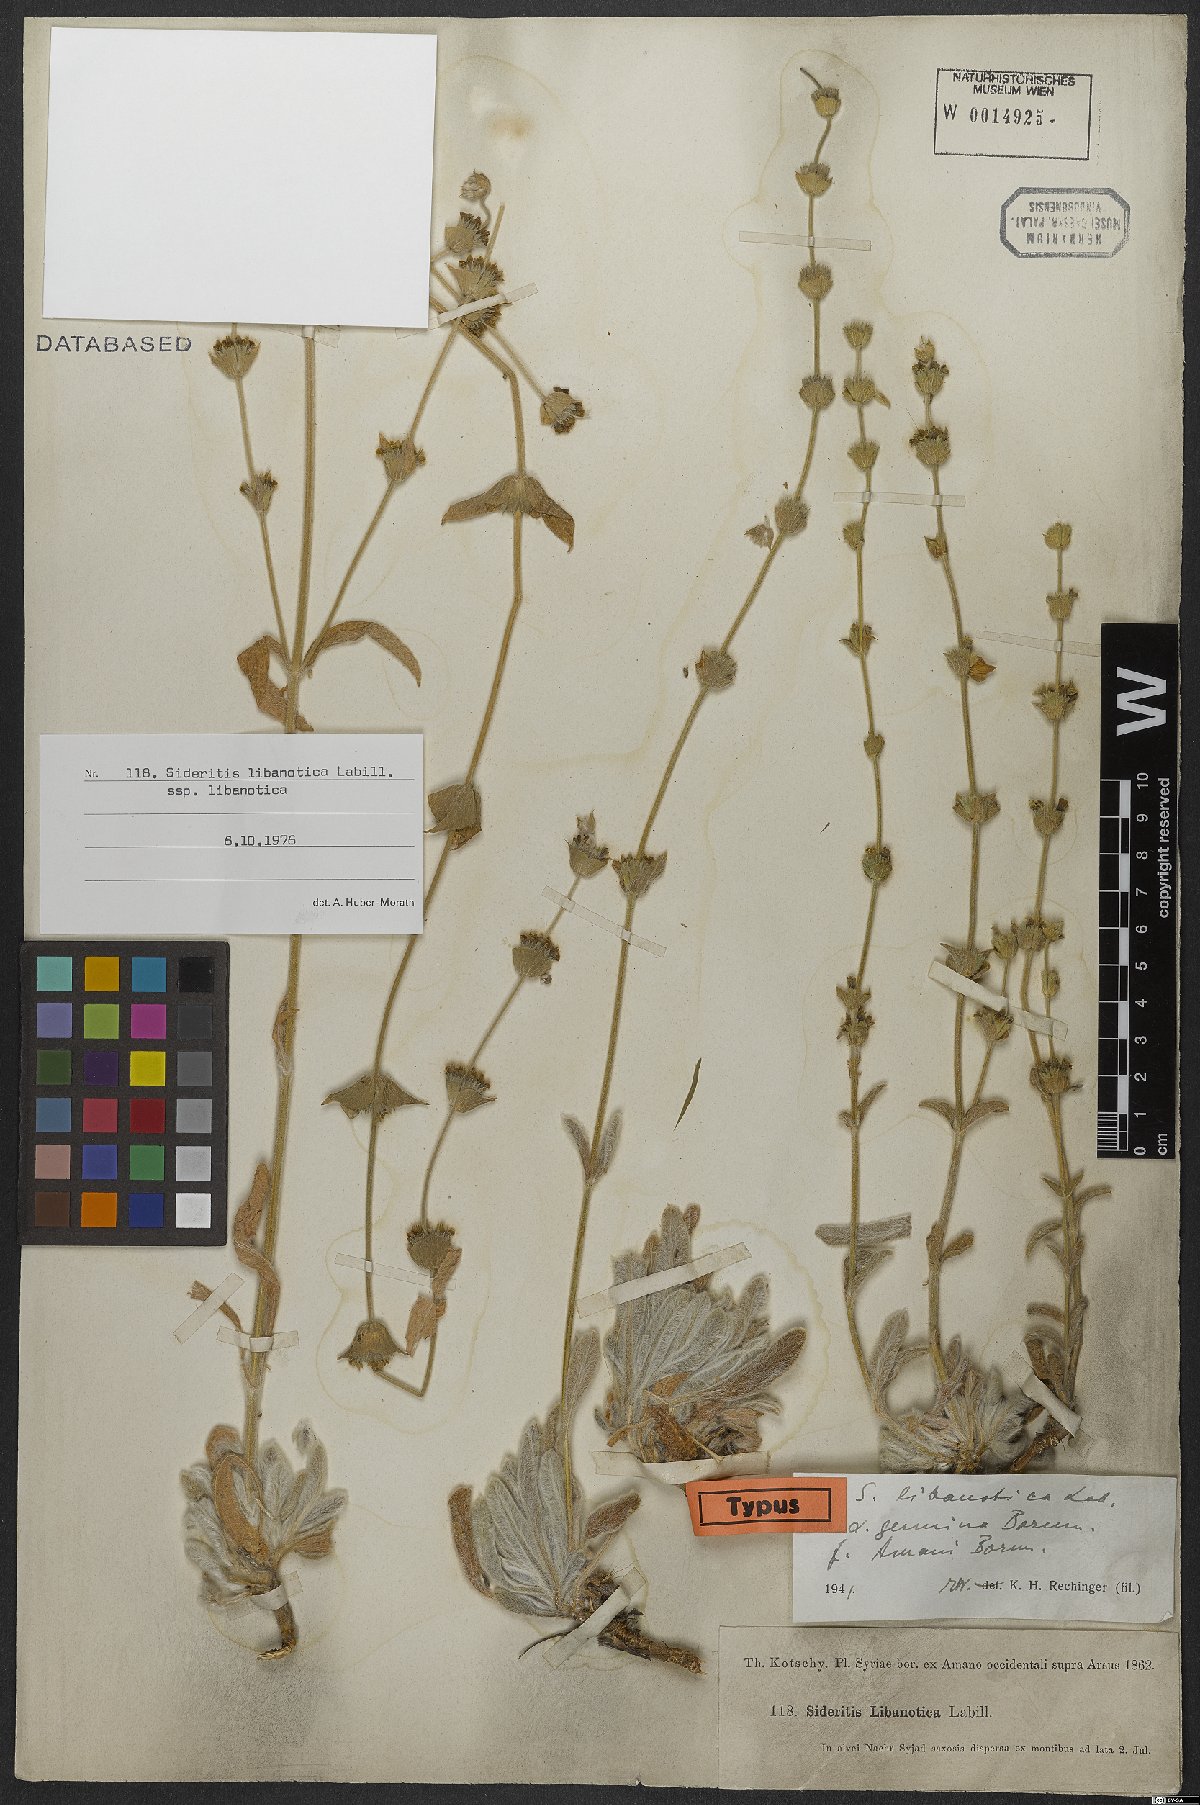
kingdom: Plantae
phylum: Tracheophyta
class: Magnoliopsida
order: Lamiales
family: Lamiaceae
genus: Sideritis
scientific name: Sideritis libanotica
